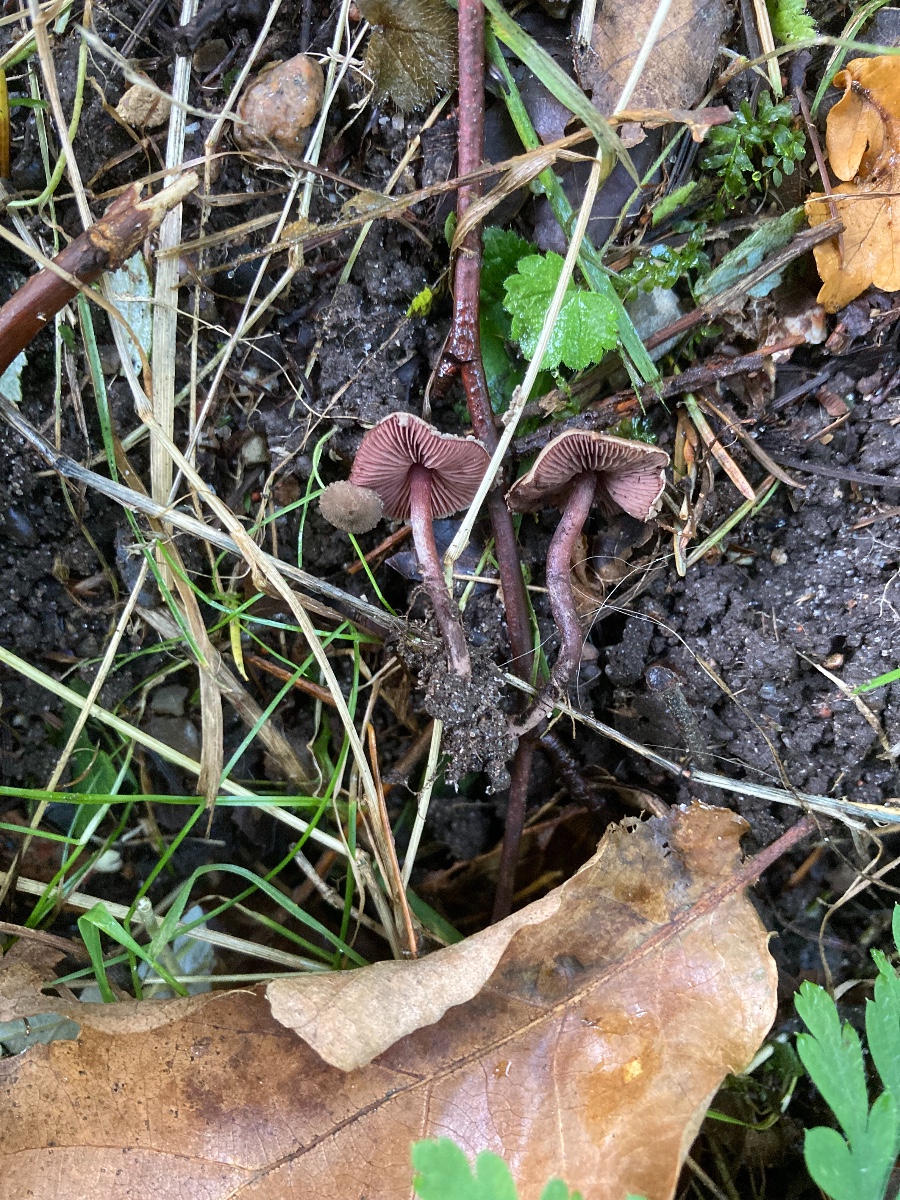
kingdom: Fungi
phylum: Basidiomycota
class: Agaricomycetes
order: Agaricales
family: Agaricaceae
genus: Melanophyllum
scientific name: Melanophyllum haematospermum
